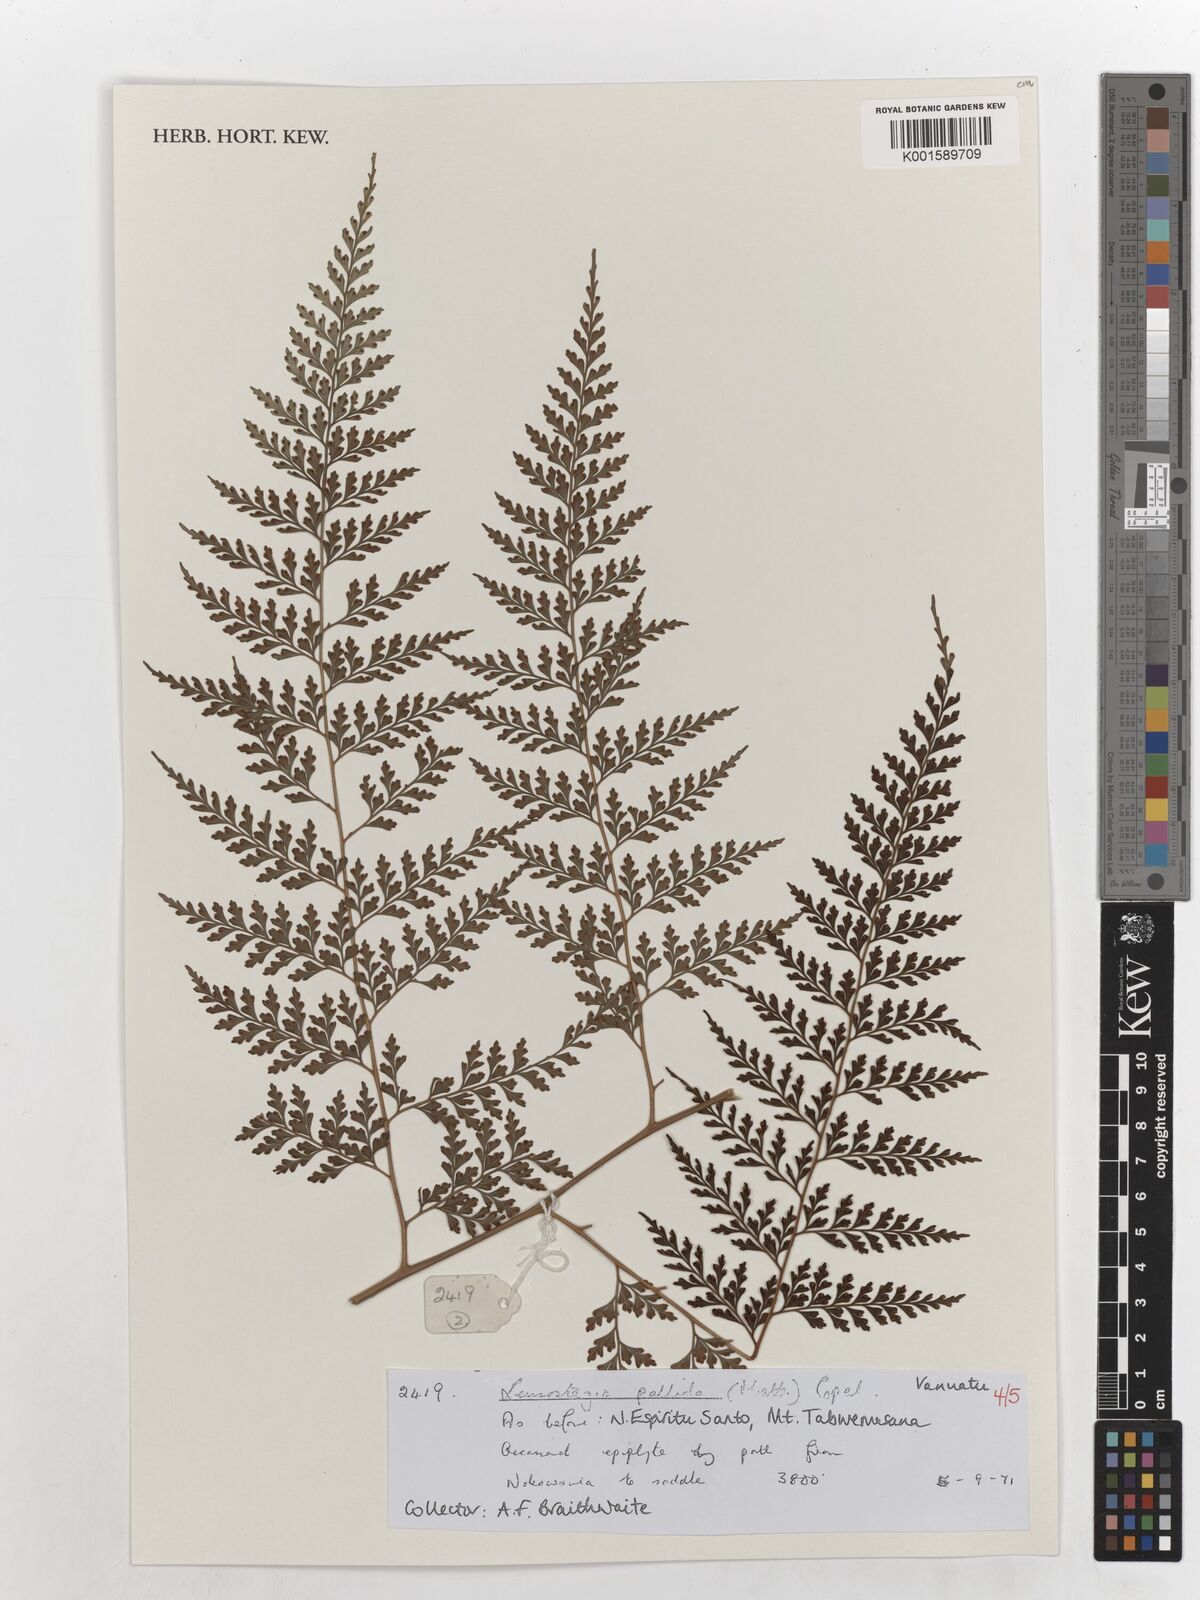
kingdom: Plantae
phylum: Tracheophyta
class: Polypodiopsida
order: Polypodiales
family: Hypodematiaceae
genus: Leucostegia
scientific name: Leucostegia pallida
